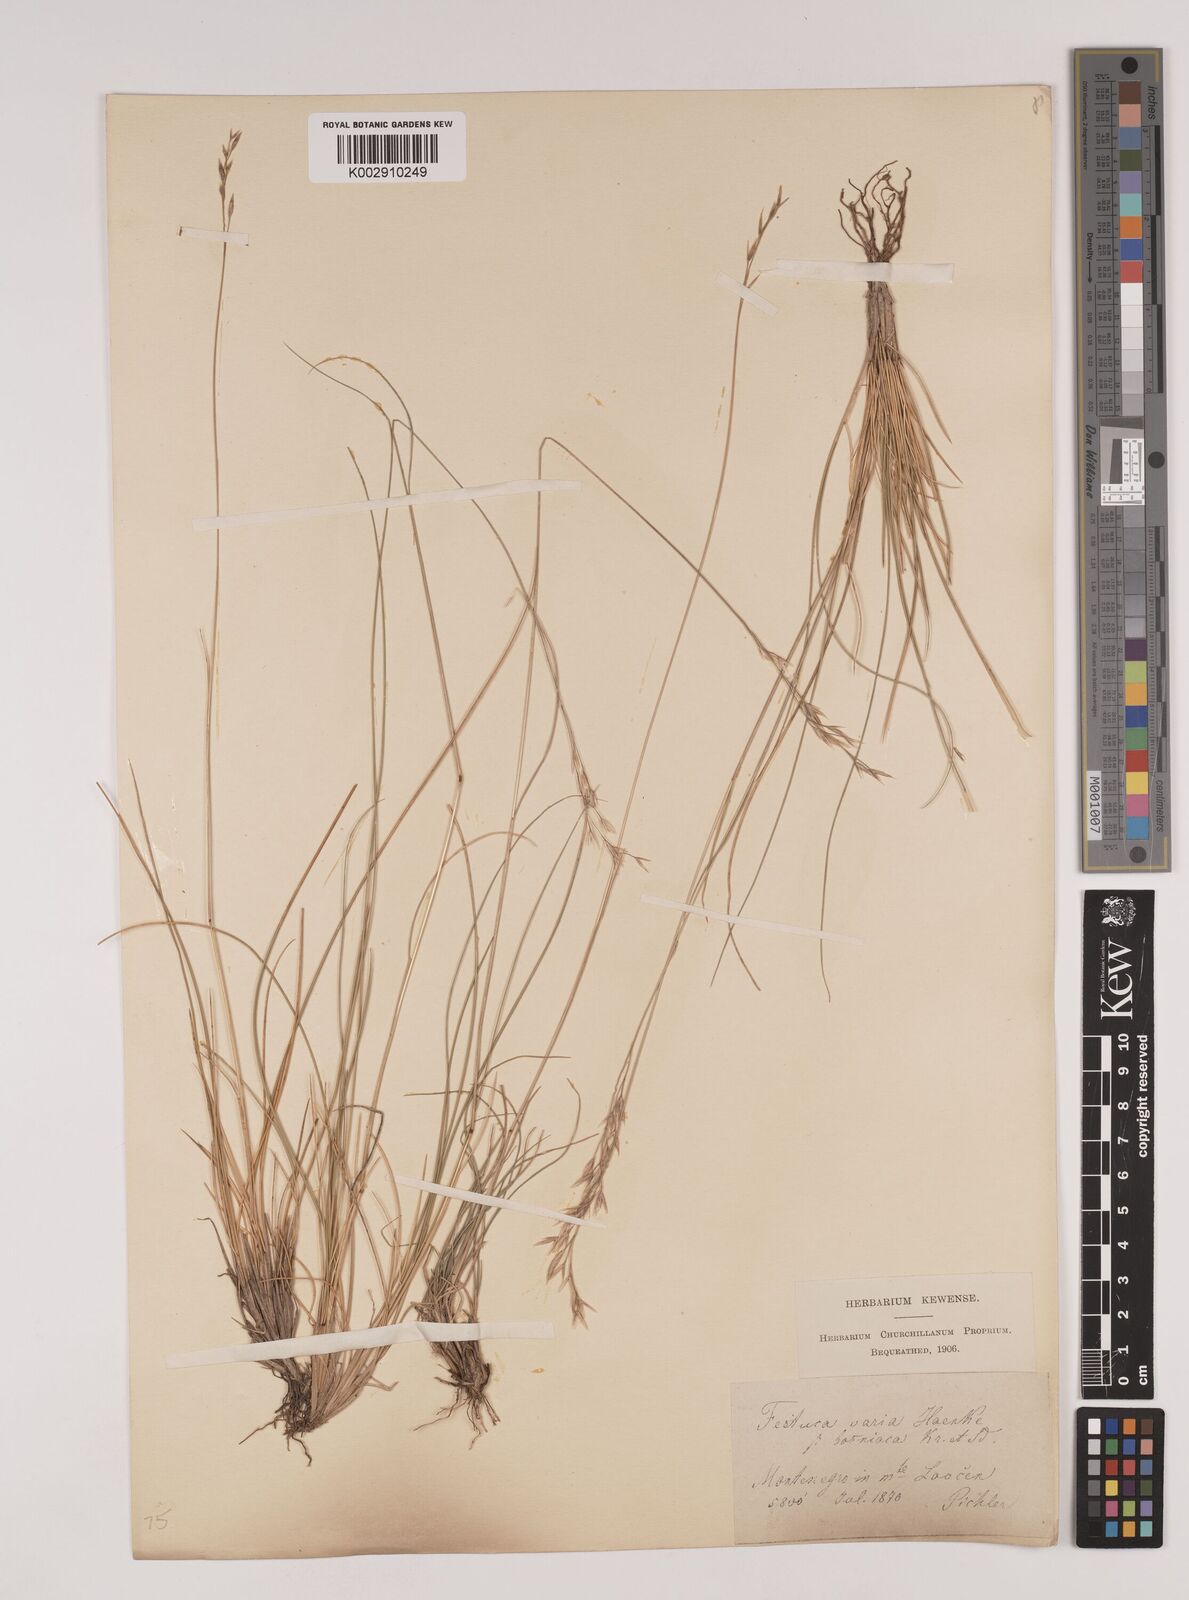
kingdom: Plantae
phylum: Tracheophyta
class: Liliopsida
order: Poales
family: Poaceae
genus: Festuca
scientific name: Festuca bosniaca
